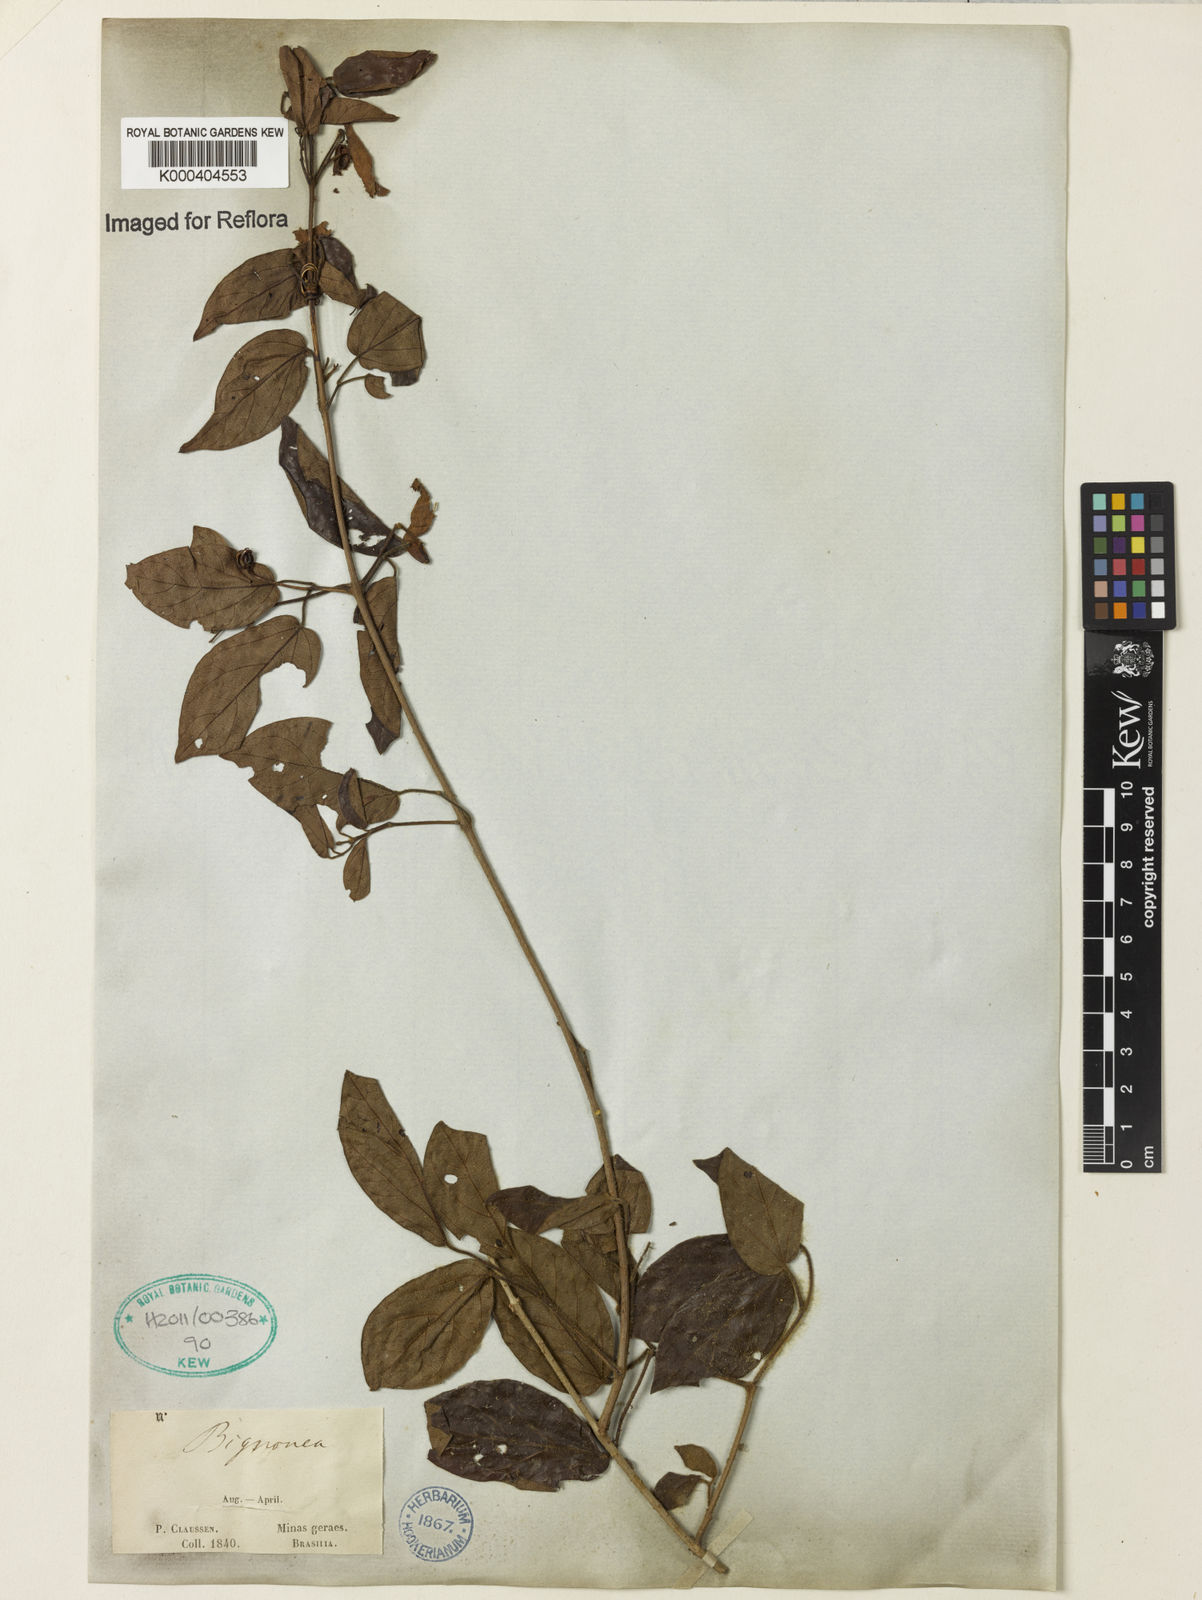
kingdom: Plantae
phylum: Tracheophyta
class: Magnoliopsida
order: Lamiales
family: Bignoniaceae
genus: Lundia
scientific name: Lundia obliqua
